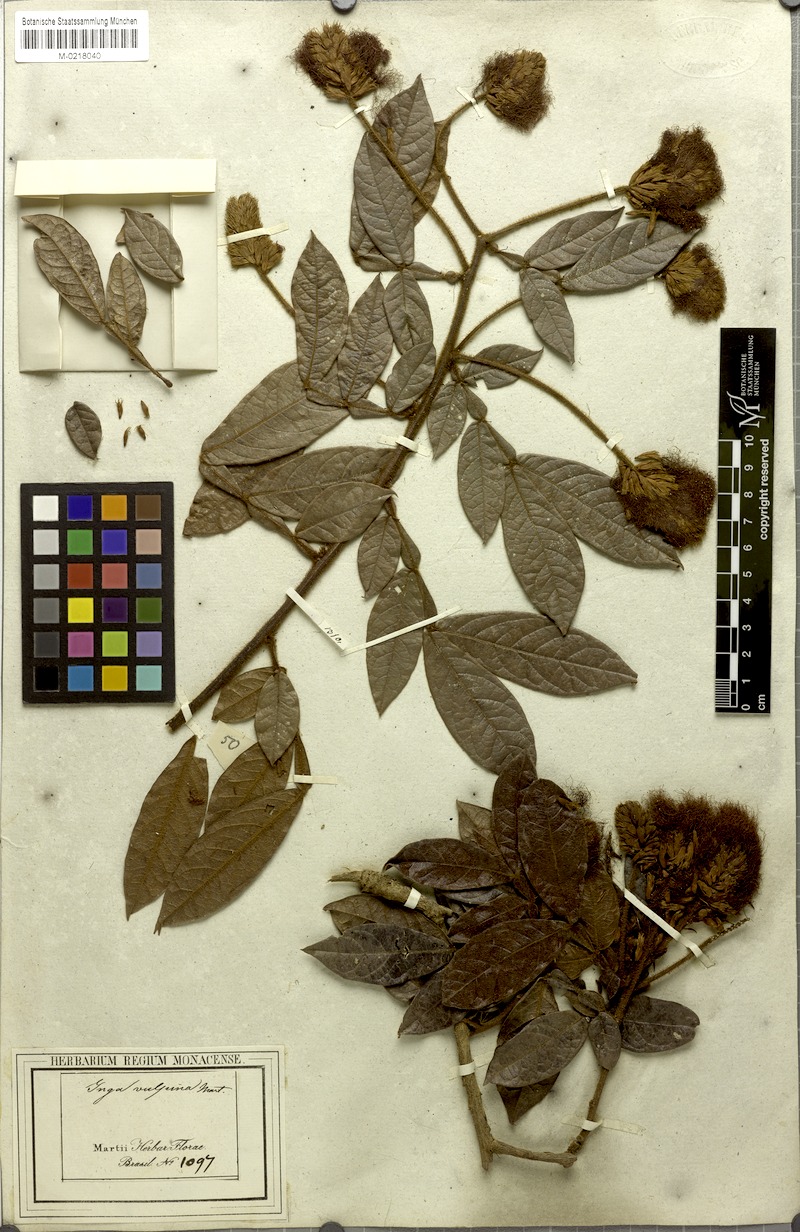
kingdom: Plantae
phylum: Tracheophyta
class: Magnoliopsida
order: Fabales
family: Fabaceae
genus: Inga
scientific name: Inga vulpina
